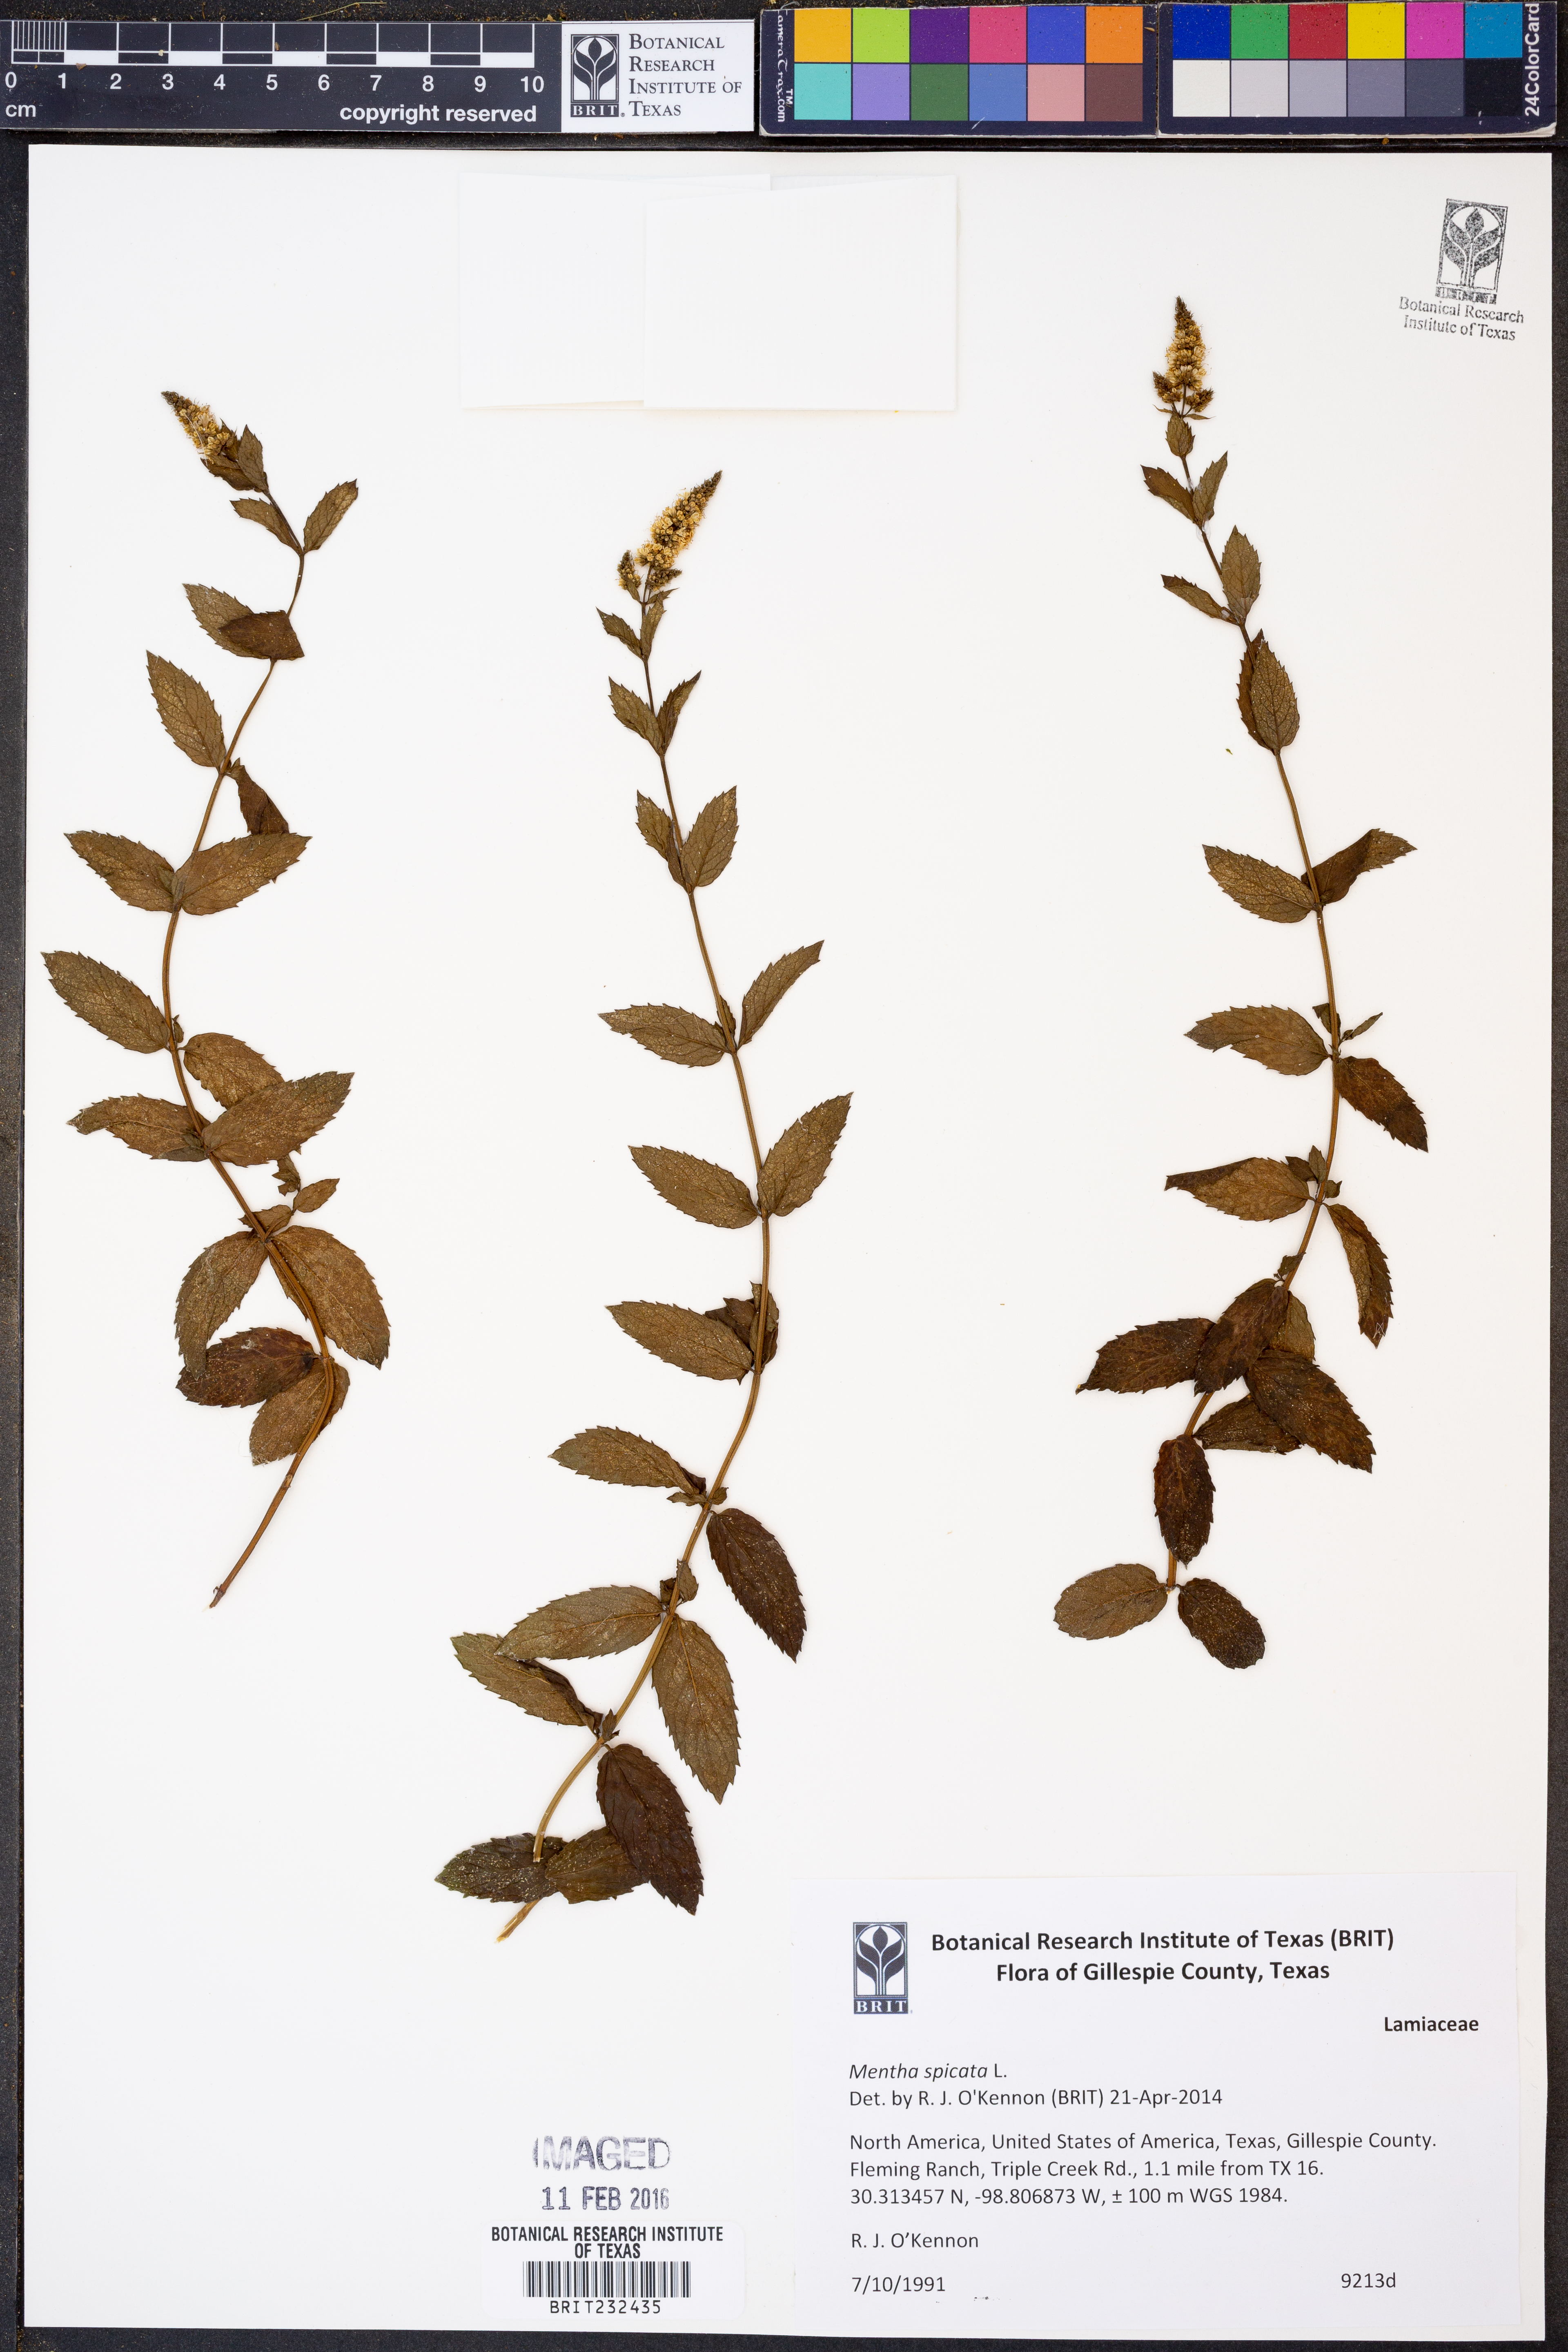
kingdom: Plantae
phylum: Tracheophyta
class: Magnoliopsida
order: Lamiales
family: Lamiaceae
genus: Mentha
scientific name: Mentha spicata
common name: Spearmint
